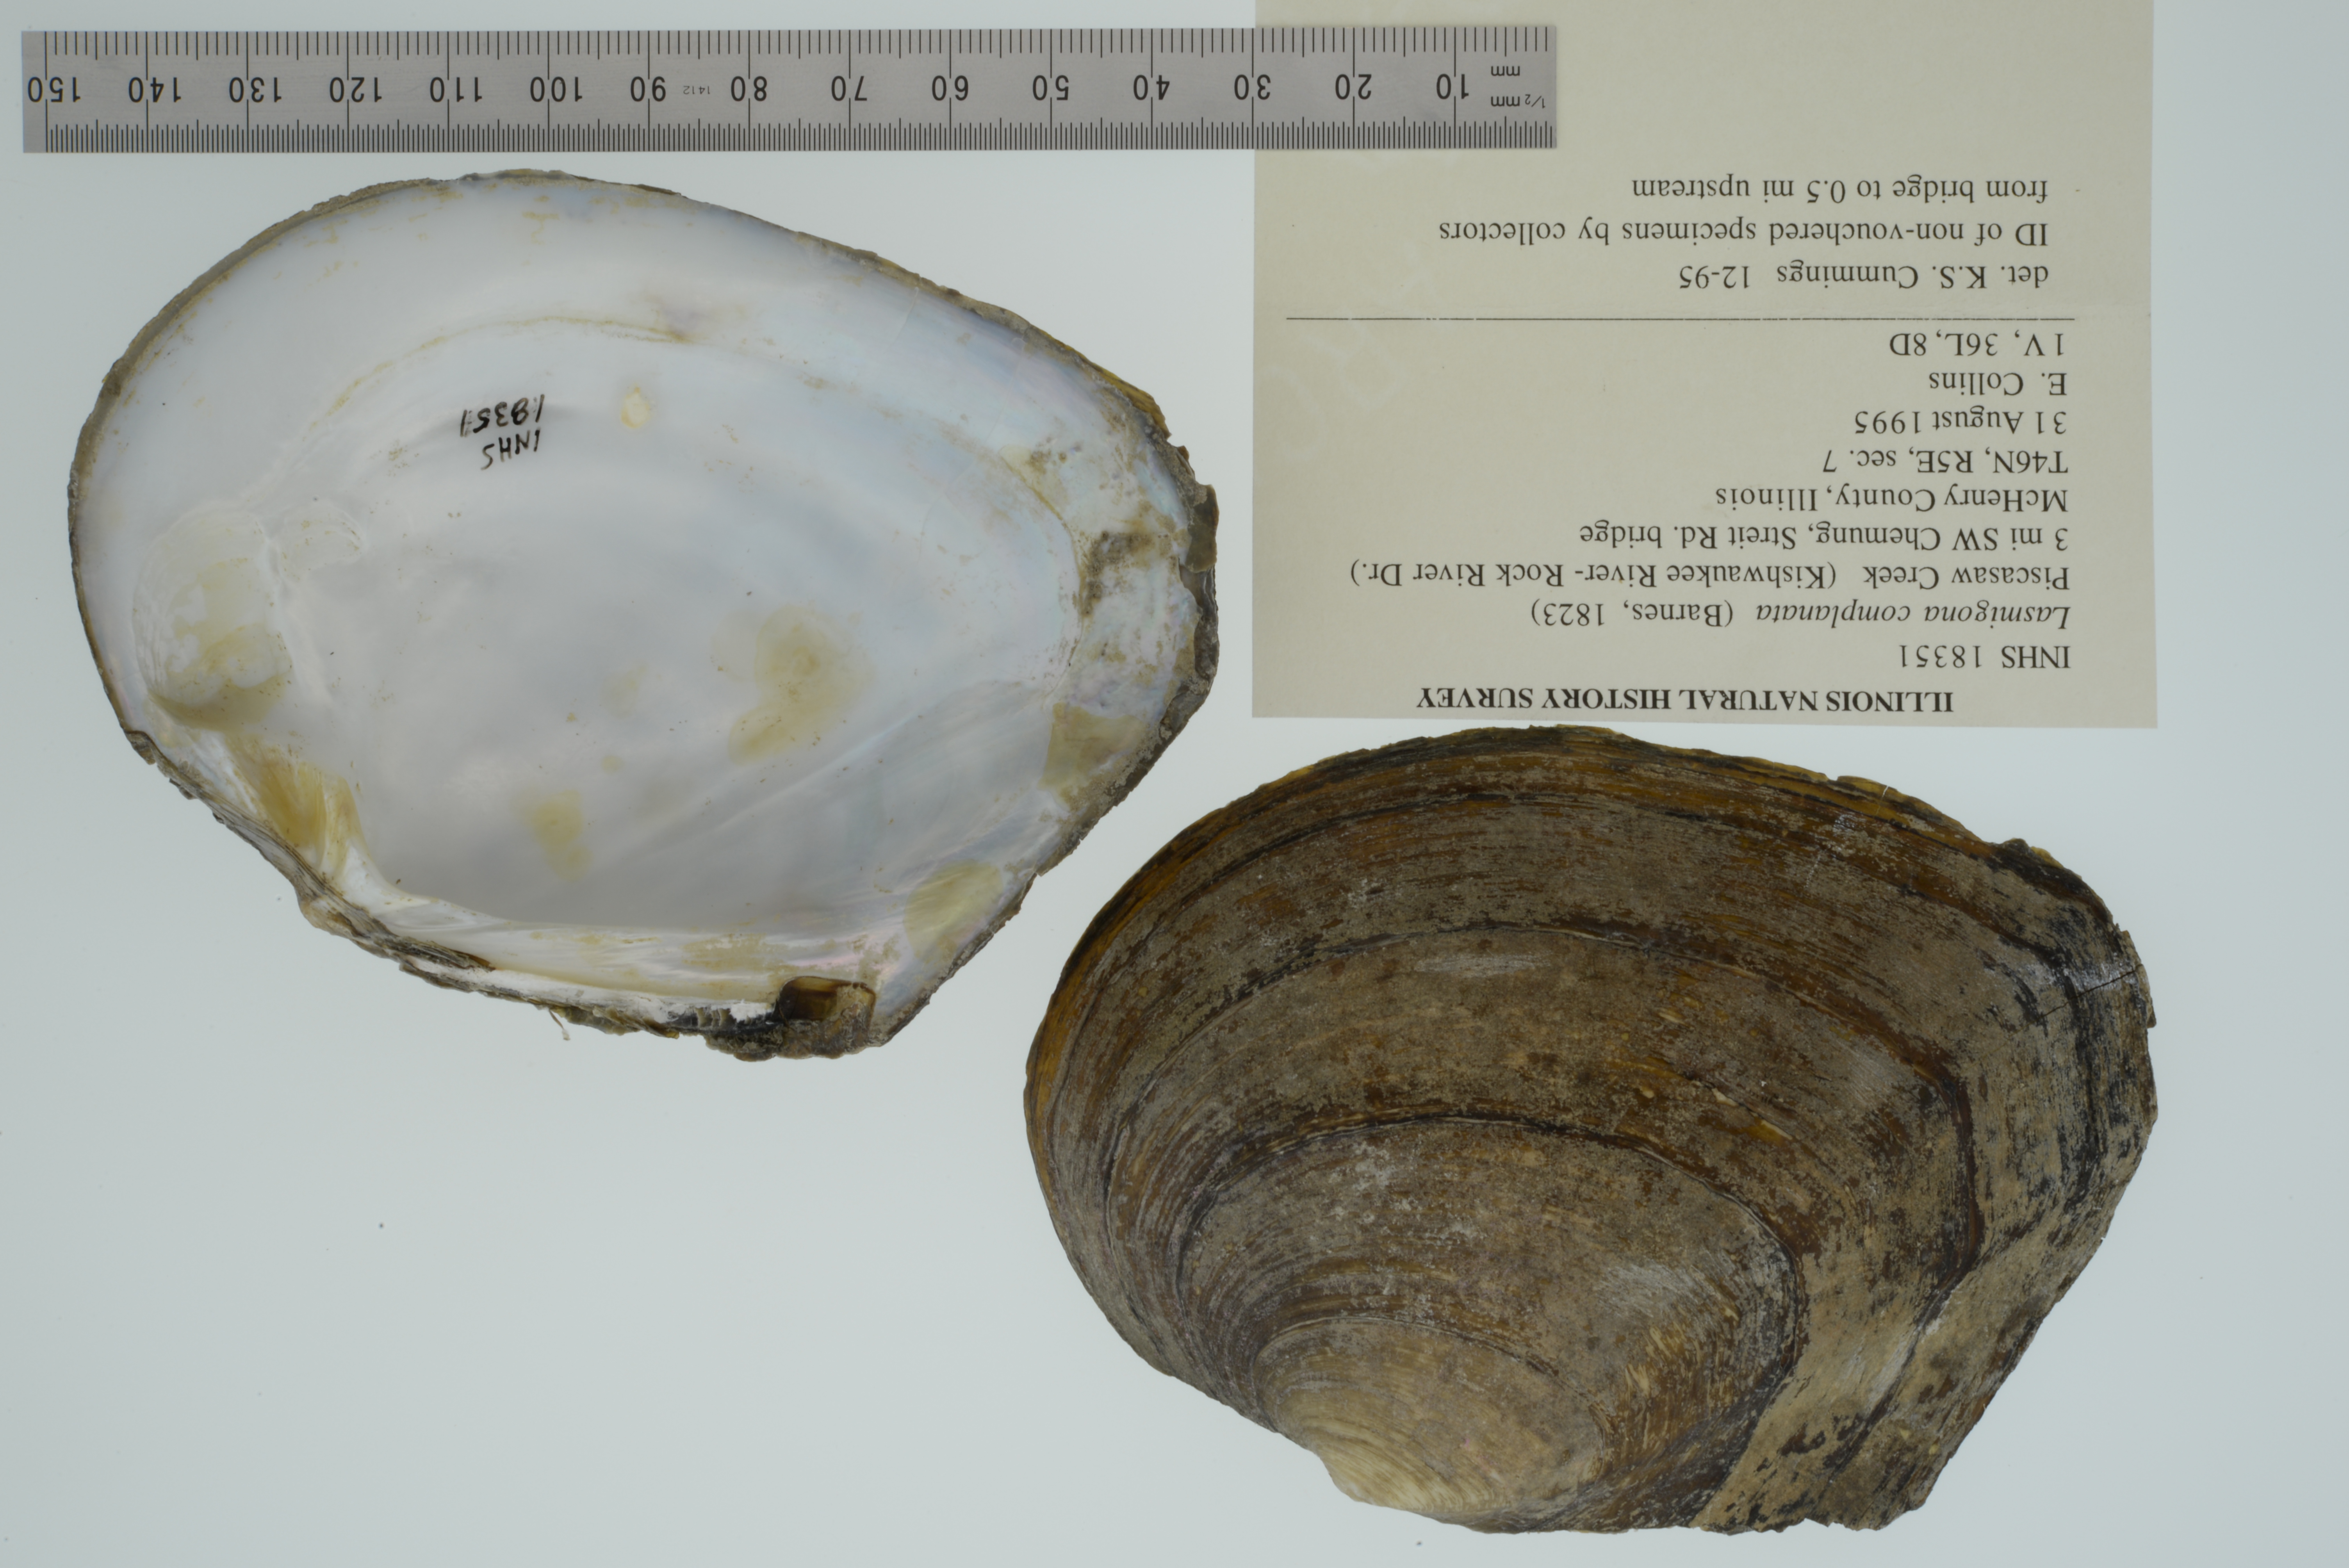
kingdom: Animalia
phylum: Mollusca
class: Bivalvia
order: Unionida
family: Unionidae
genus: Lasmigona
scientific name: Lasmigona complanata
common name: White heelsplitter
